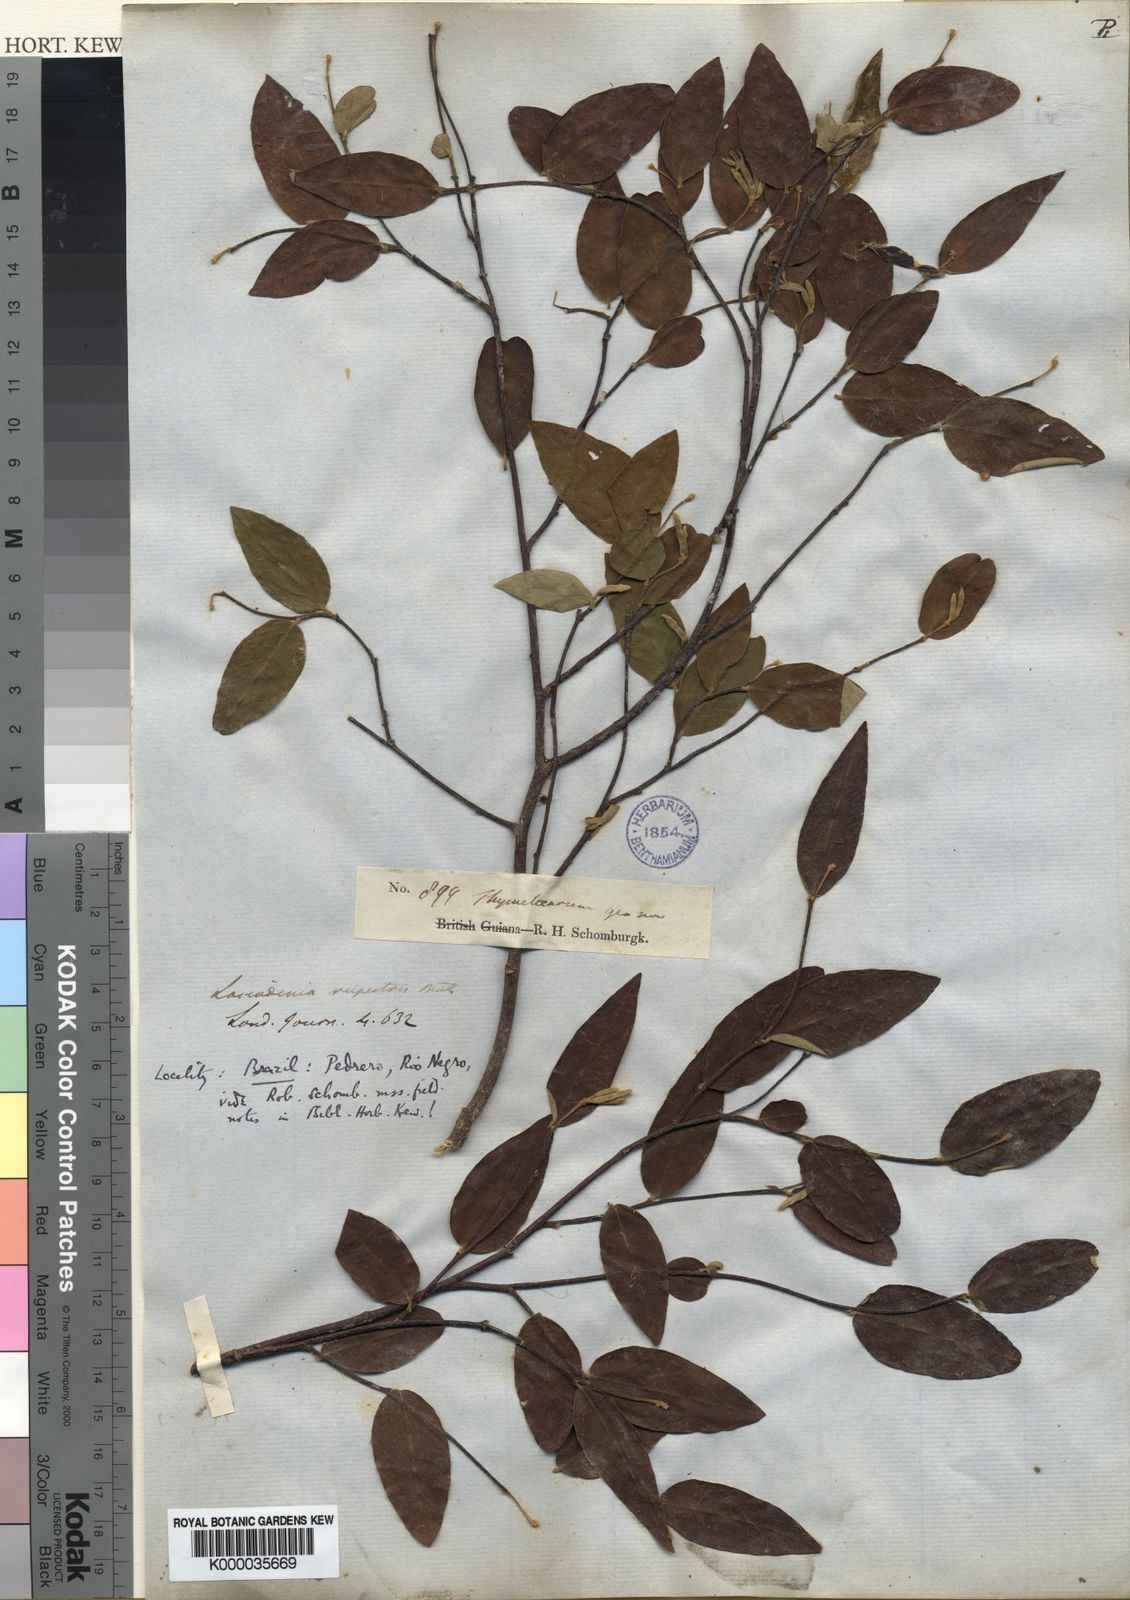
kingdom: Plantae
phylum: Tracheophyta
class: Magnoliopsida
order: Malvales
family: Thymelaeaceae
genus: Lasiadenia
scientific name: Lasiadenia rupestris
